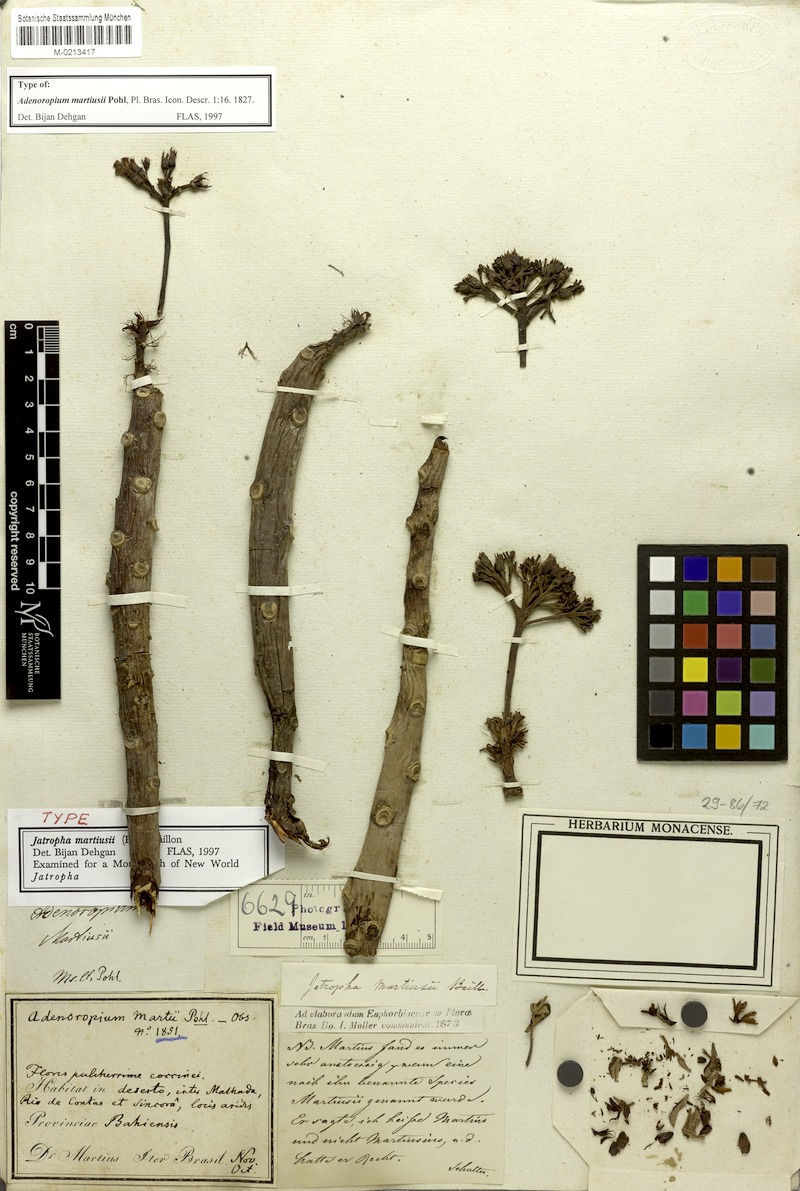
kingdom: Plantae
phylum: Tracheophyta
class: Magnoliopsida
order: Malpighiales
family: Euphorbiaceae
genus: Jatropha
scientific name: Jatropha martiusii
